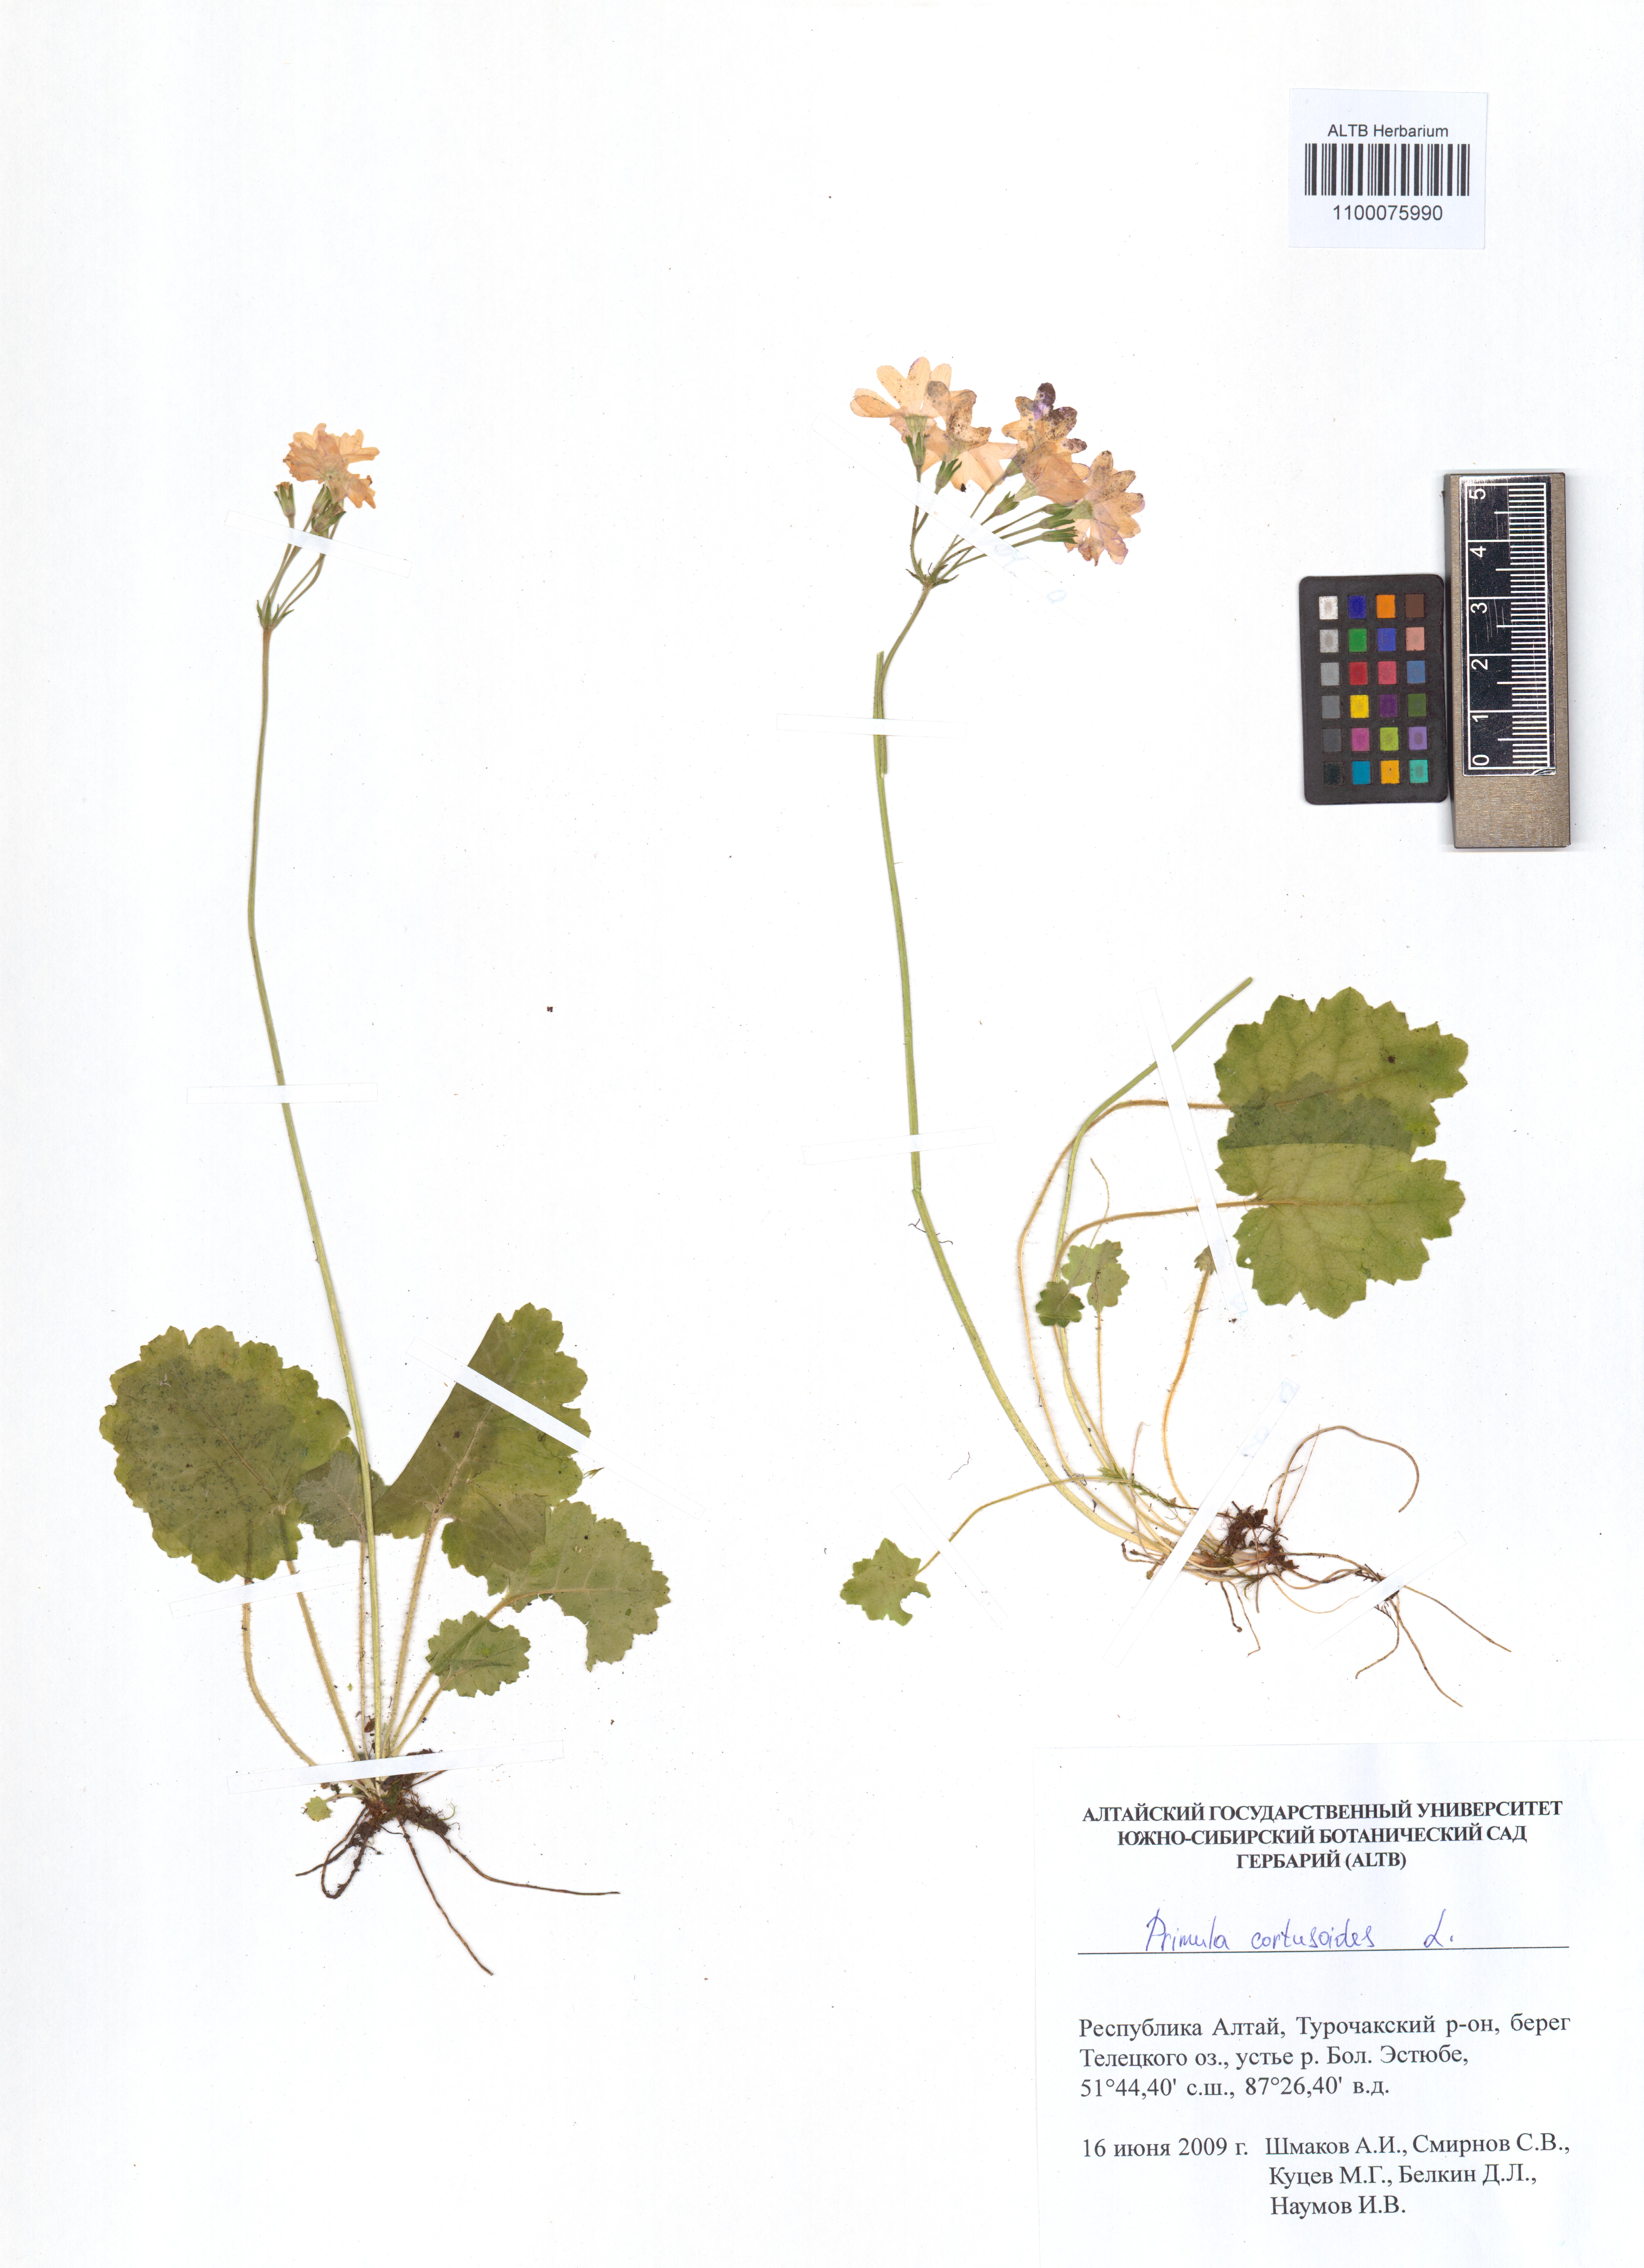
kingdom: Plantae
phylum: Tracheophyta
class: Magnoliopsida
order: Ericales
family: Primulaceae
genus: Primula
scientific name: Primula cortusoides
